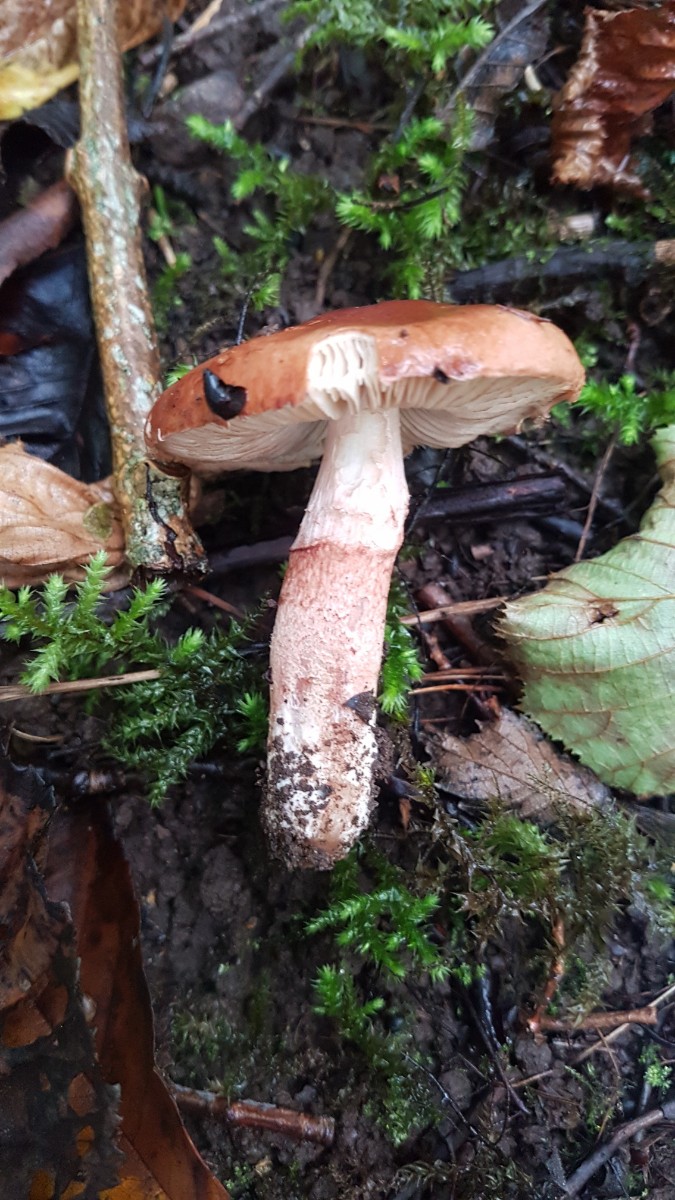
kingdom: Fungi
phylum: Basidiomycota
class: Agaricomycetes
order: Agaricales
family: Amanitaceae
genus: Limacella
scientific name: Limacella delicata
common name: rosabrun snekkehat
